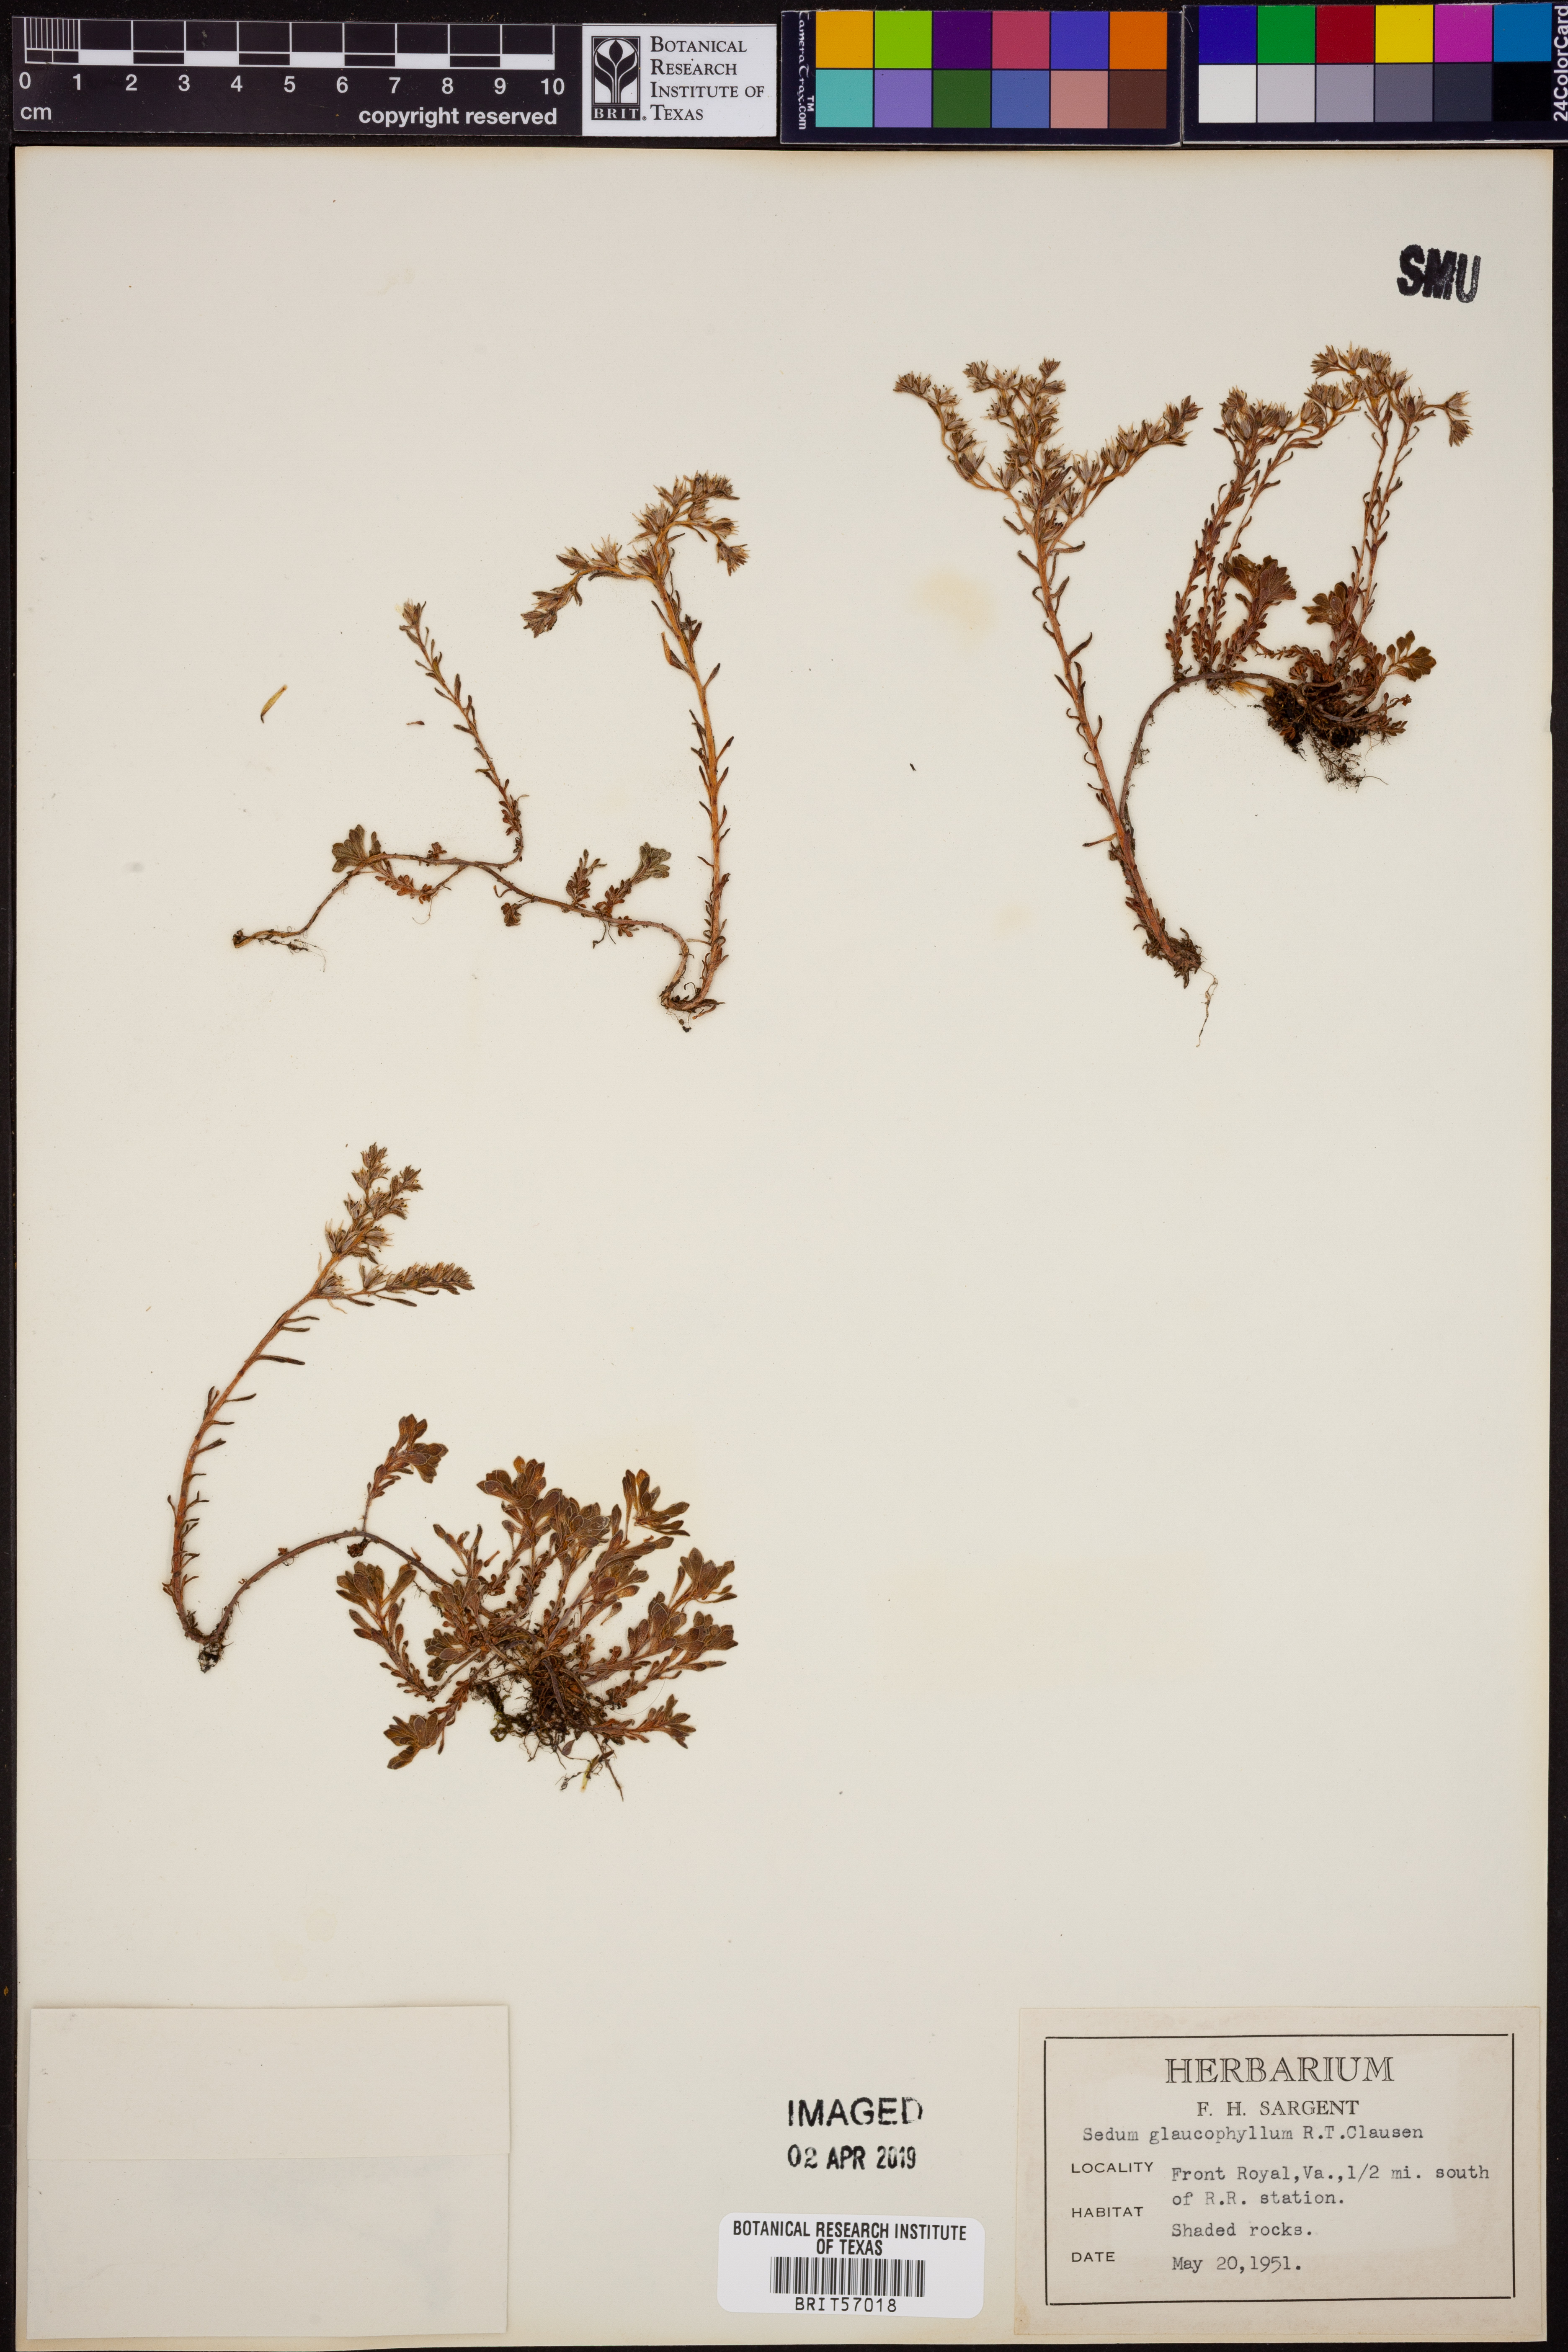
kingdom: Plantae
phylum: Tracheophyta
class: Magnoliopsida
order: Saxifragales
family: Crassulaceae
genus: Sedum
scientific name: Sedum glaucophyllum
